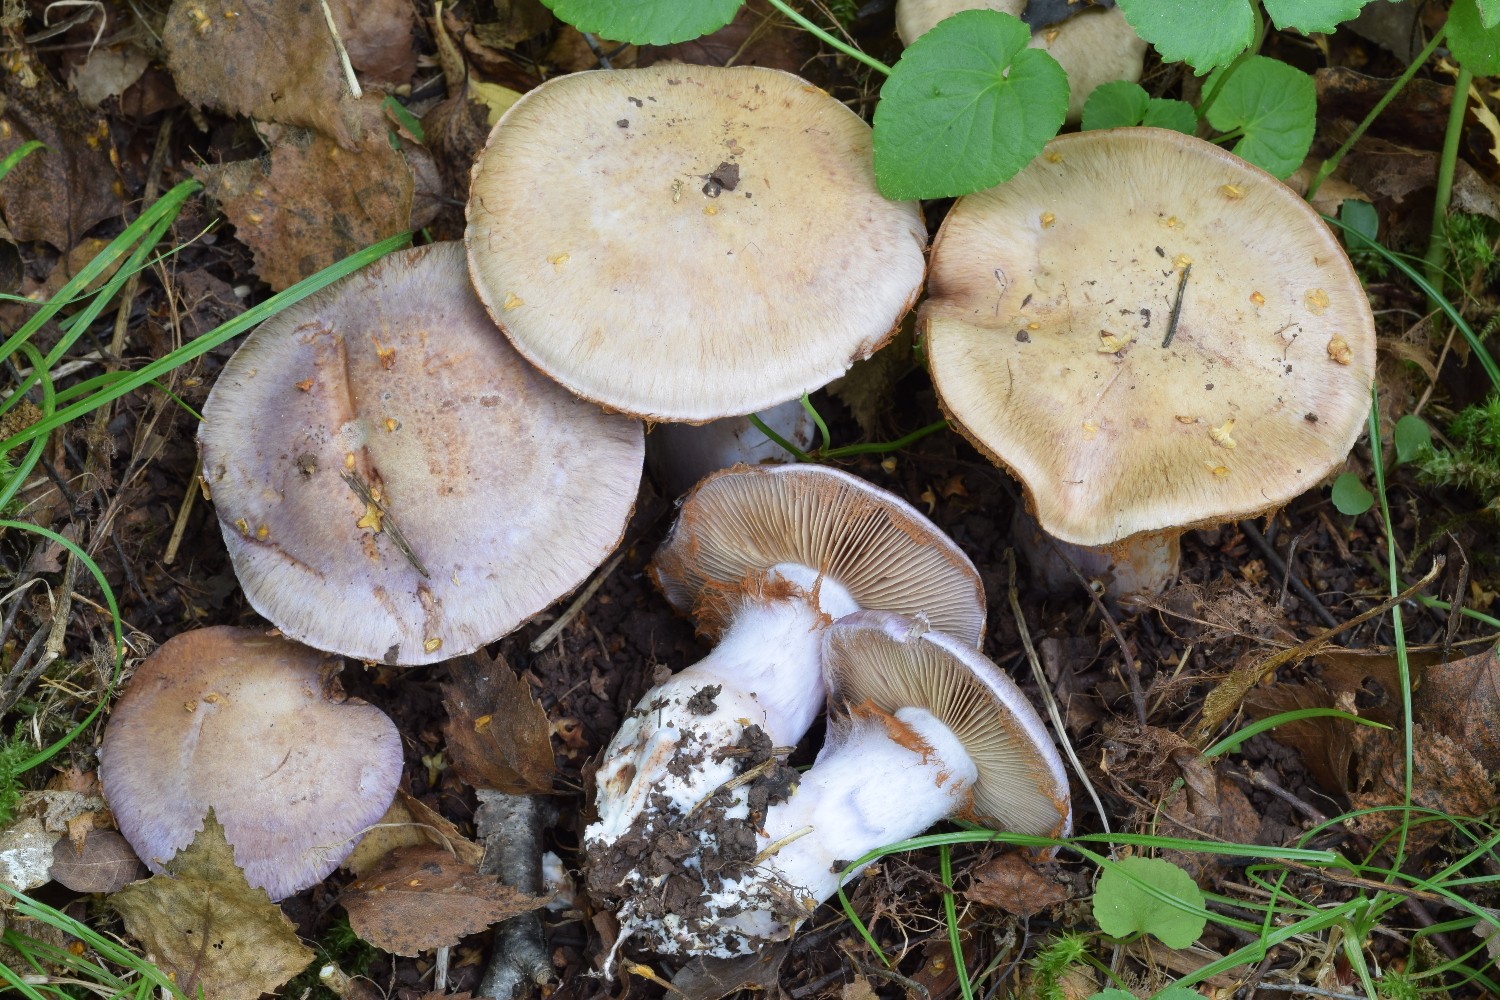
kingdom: Fungi
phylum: Basidiomycota
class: Agaricomycetes
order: Agaricales
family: Cortinariaceae
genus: Cortinarius
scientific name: Cortinarius variecolor
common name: violetagtig slørhat
